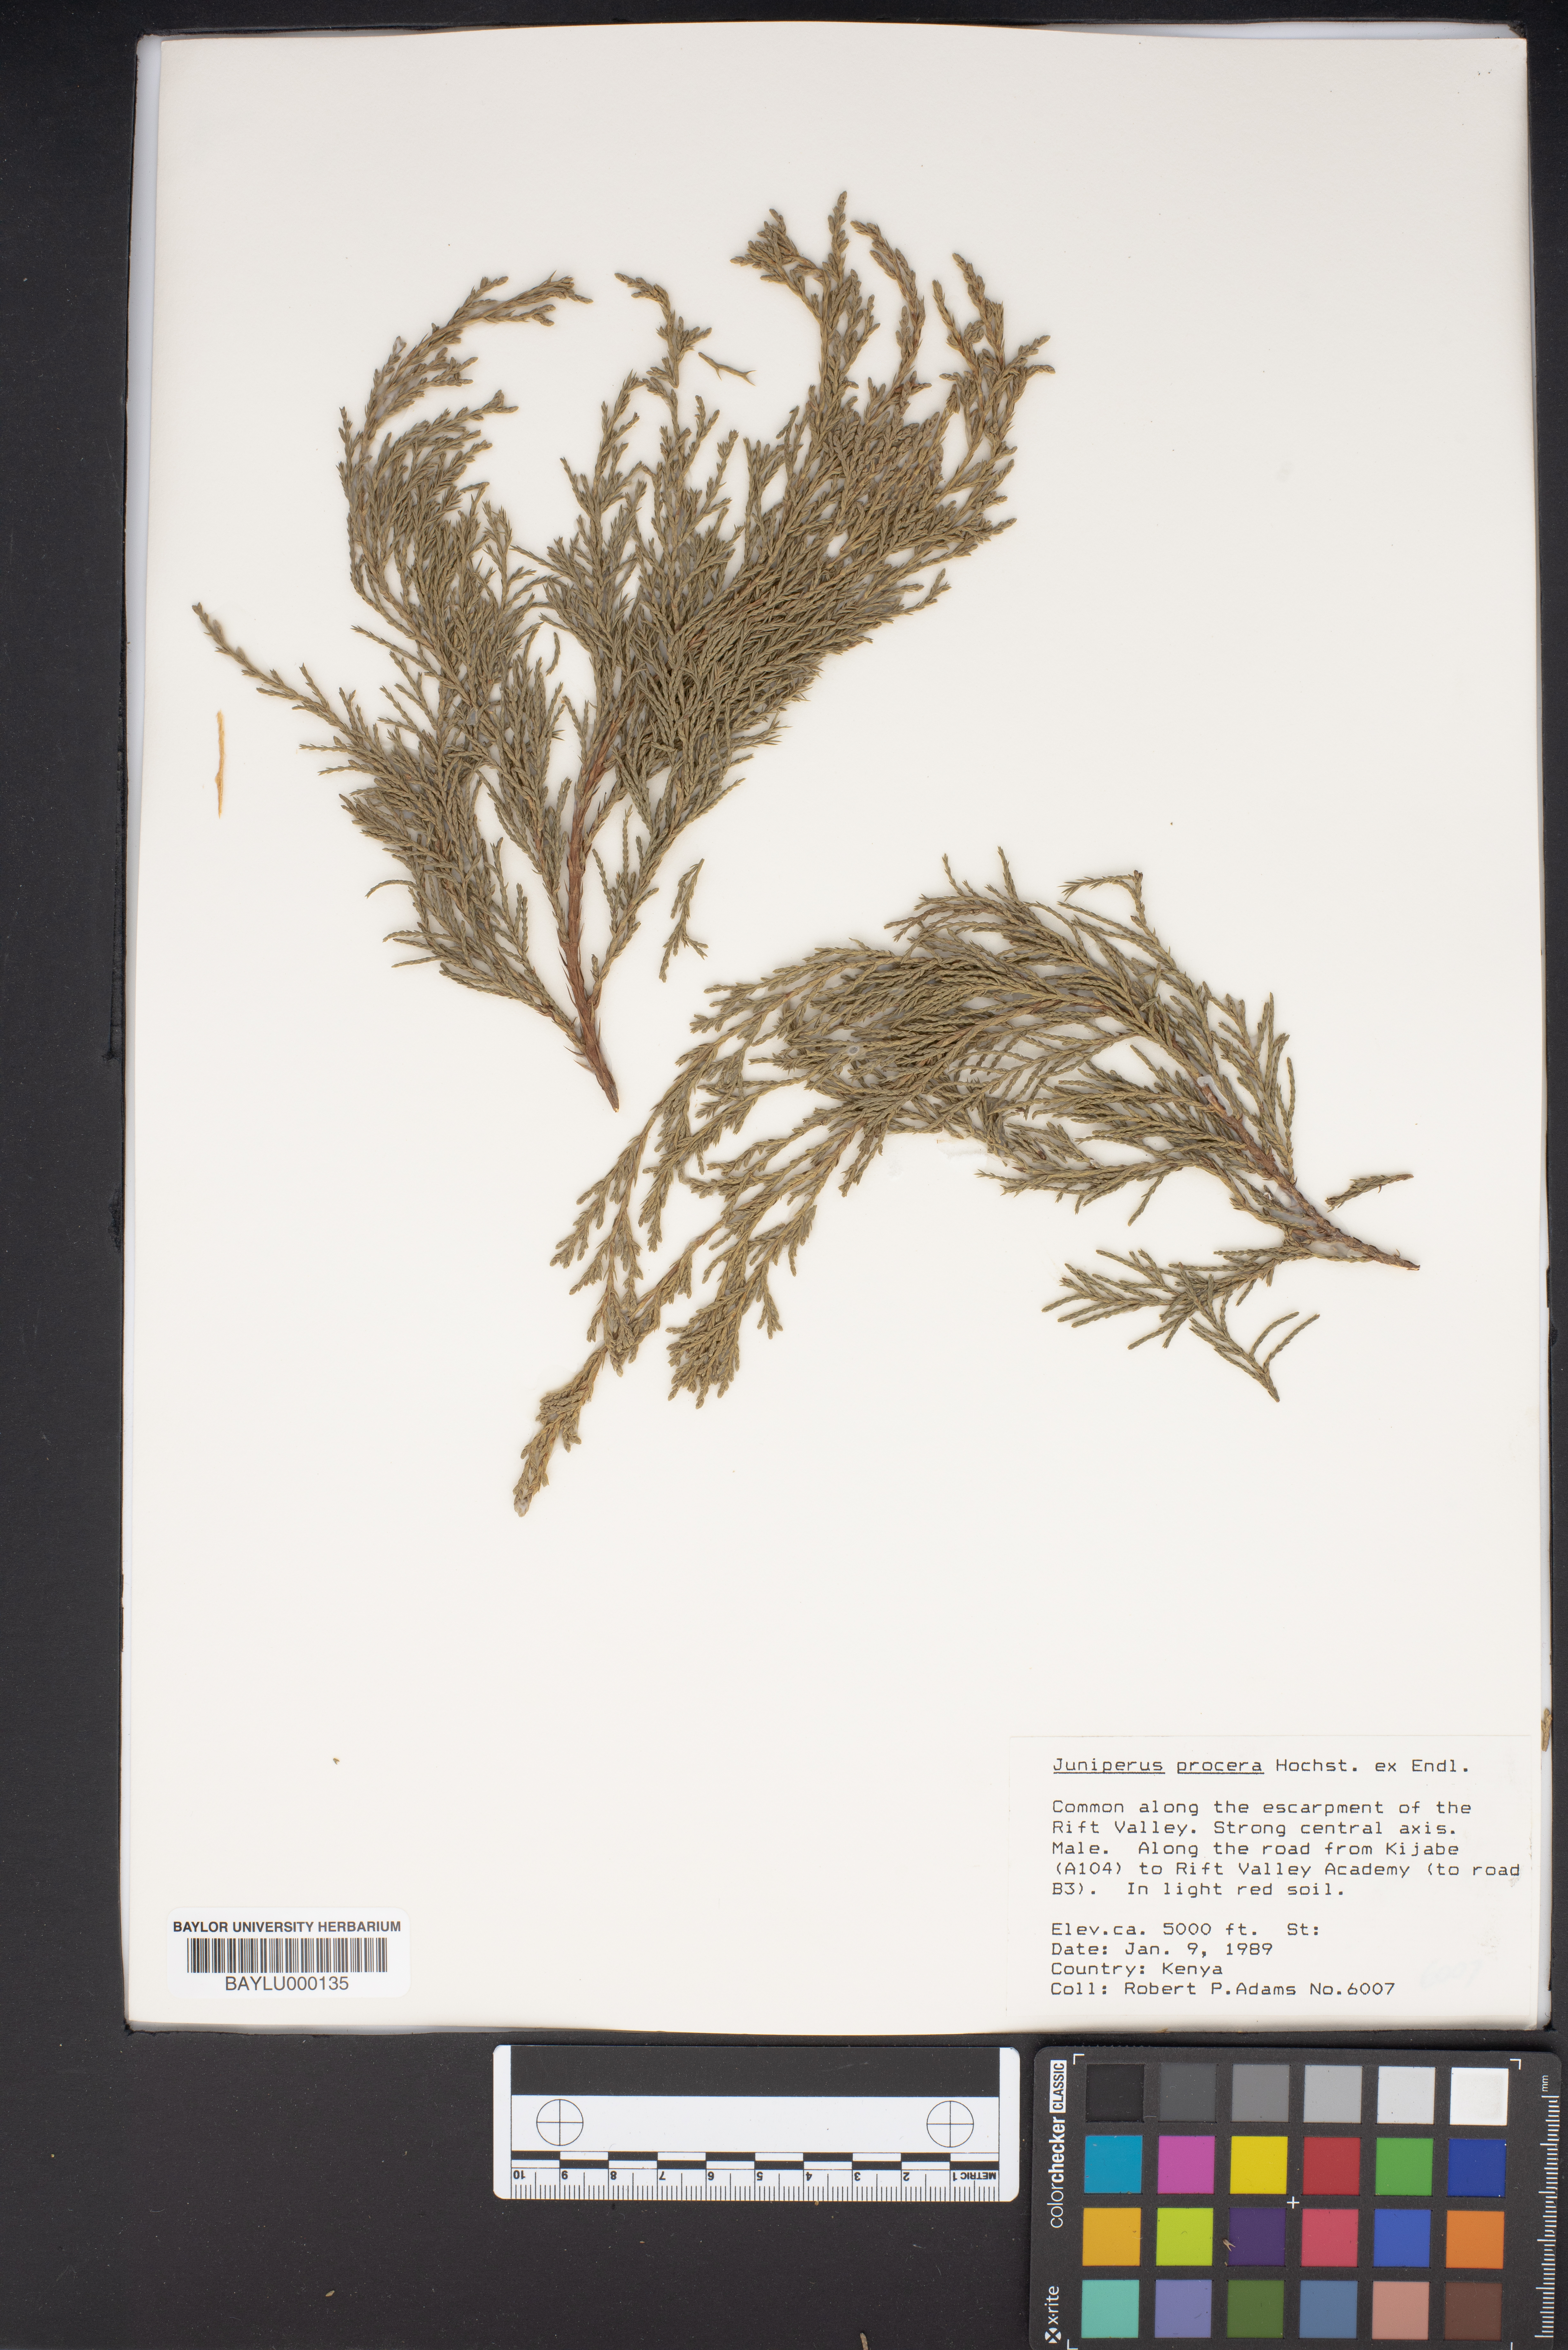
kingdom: Plantae
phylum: Tracheophyta
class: Pinopsida
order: Pinales
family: Cupressaceae
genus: Juniperus
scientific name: Juniperus procera
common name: African juniper
